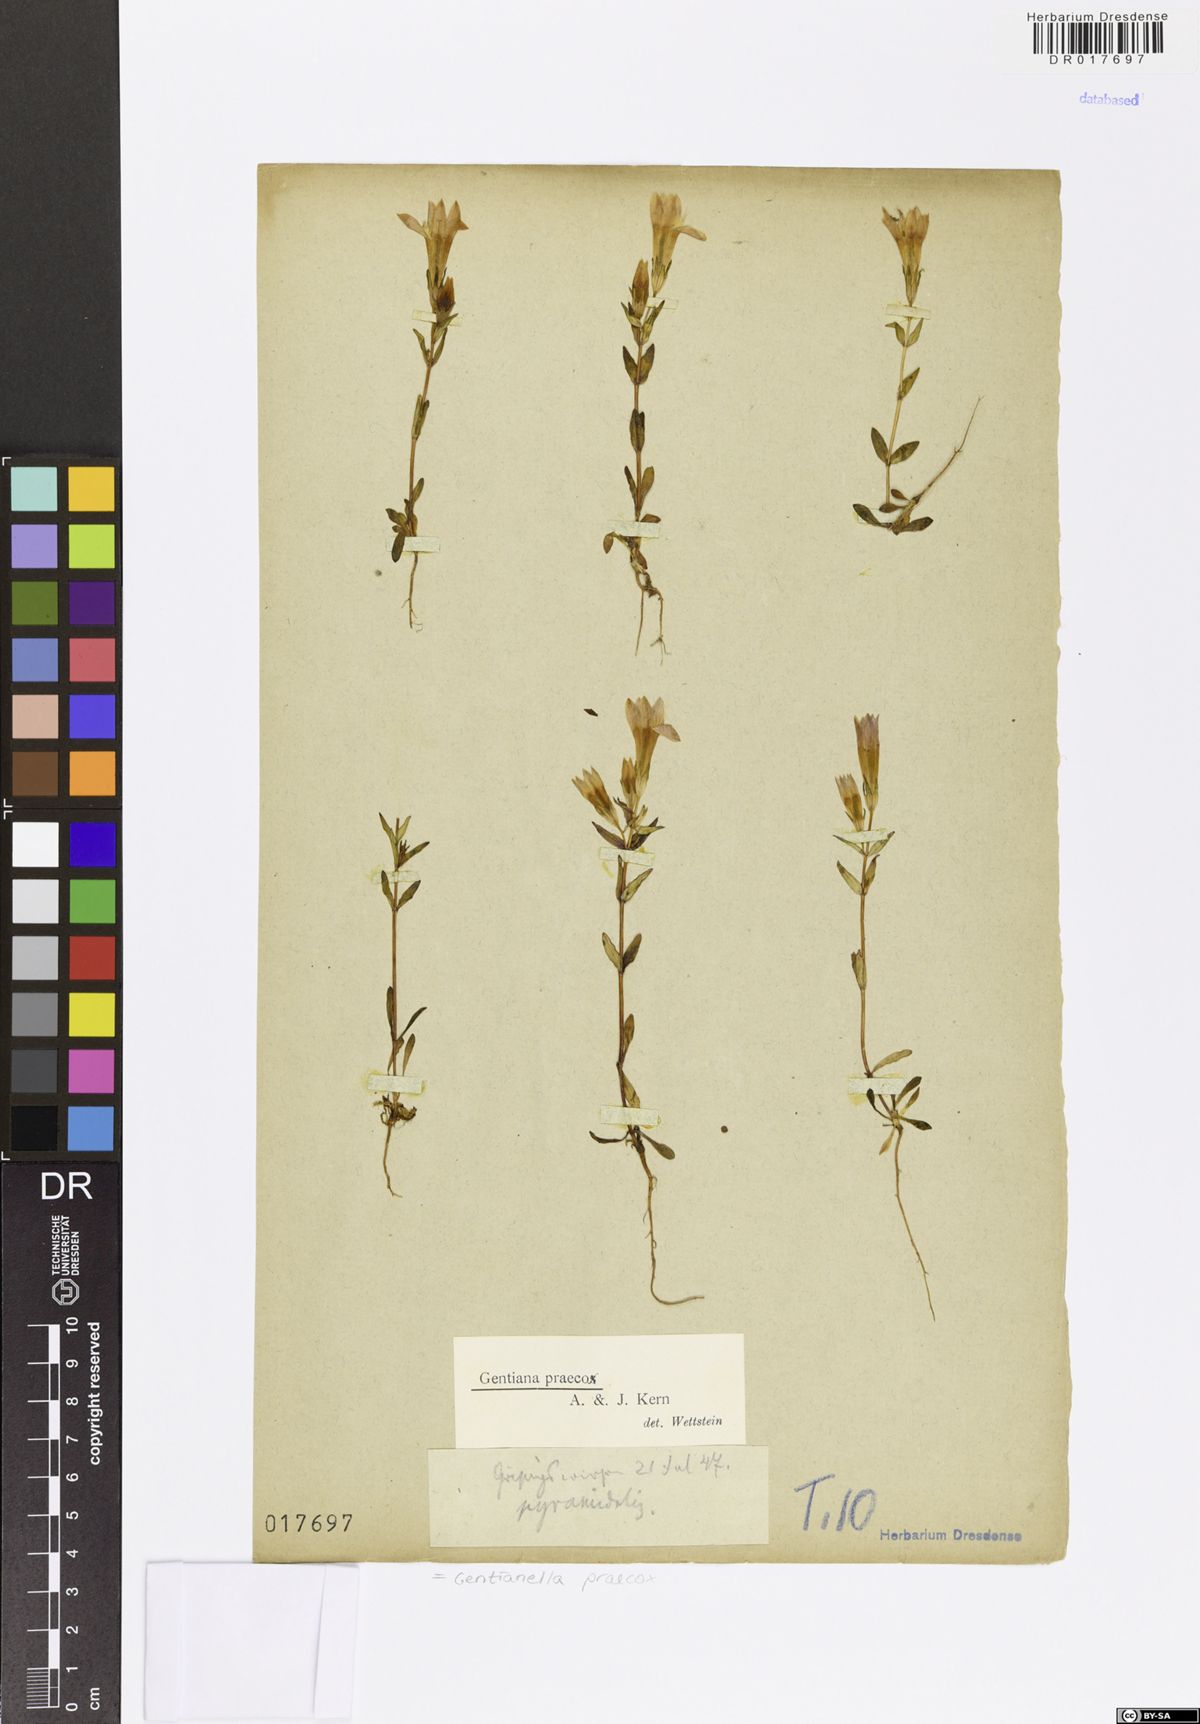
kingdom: Plantae
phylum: Tracheophyta
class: Magnoliopsida
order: Gentianales
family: Gentianaceae
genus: Gentianella
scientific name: Gentianella praecox
